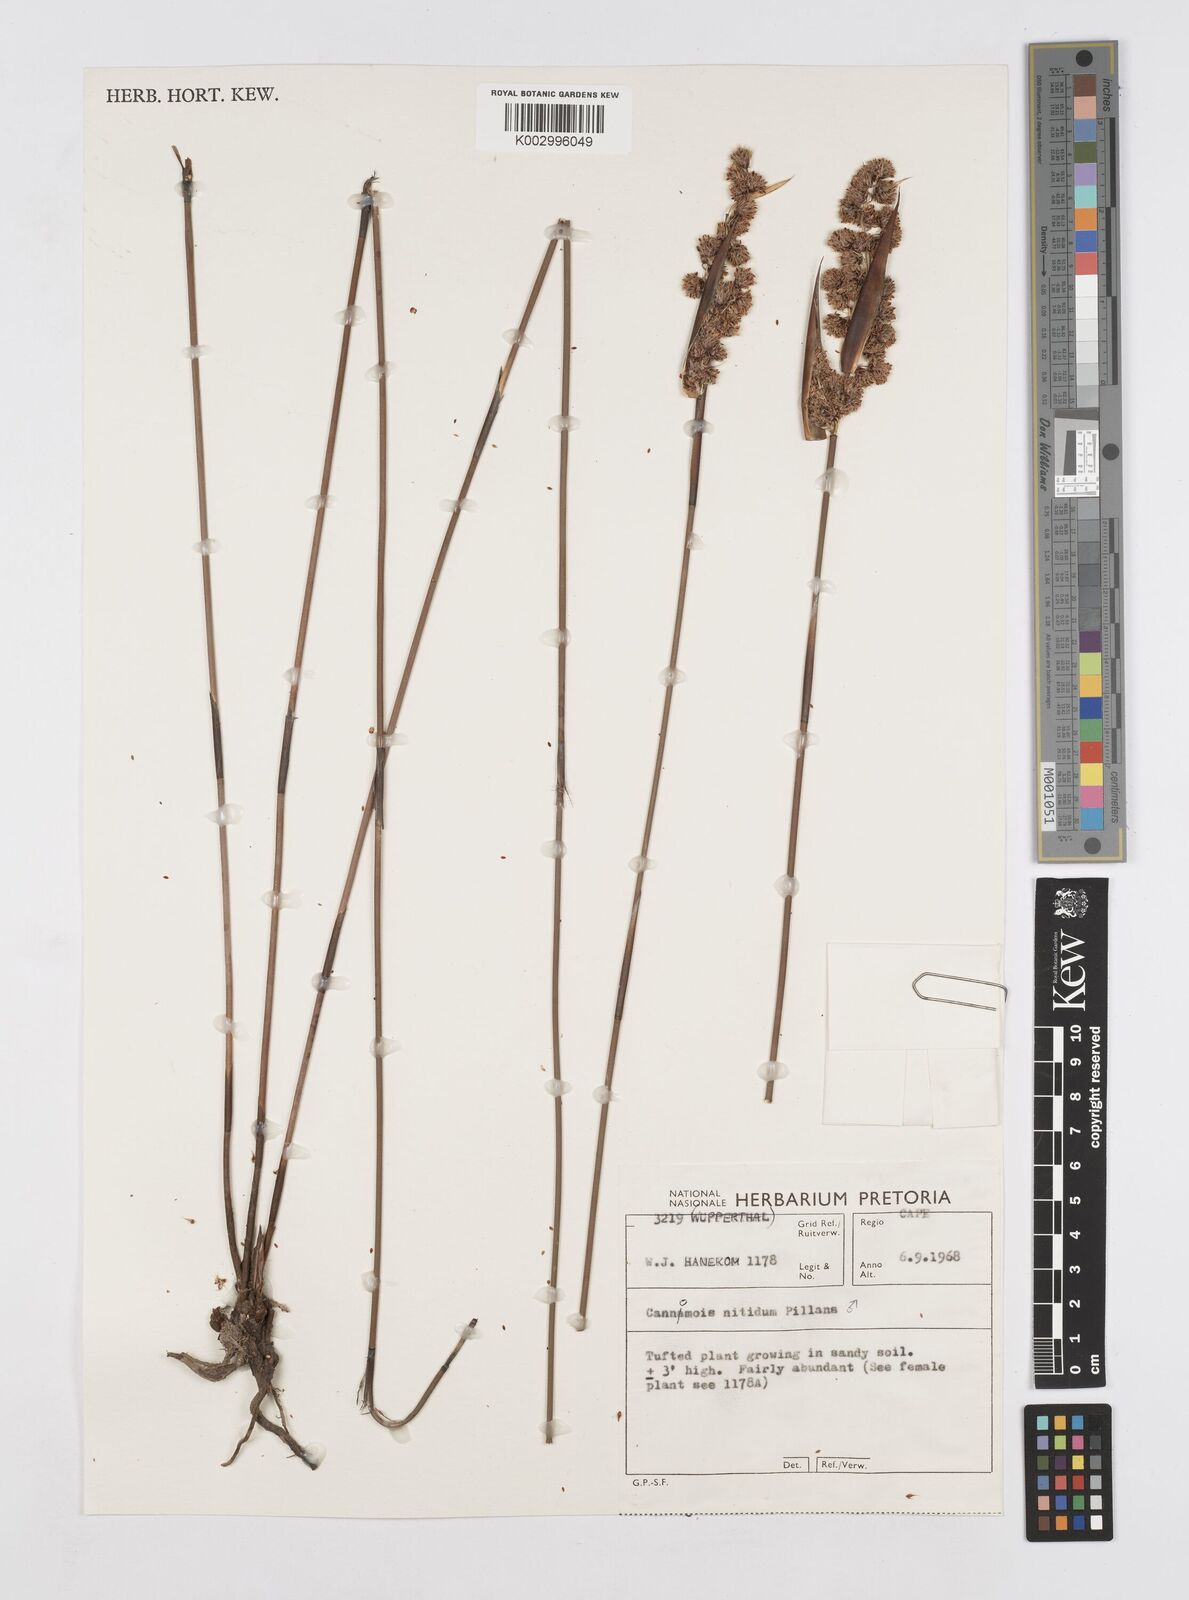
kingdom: Plantae
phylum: Tracheophyta
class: Liliopsida
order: Poales
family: Restionaceae
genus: Cannomois
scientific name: Cannomois parviflora
